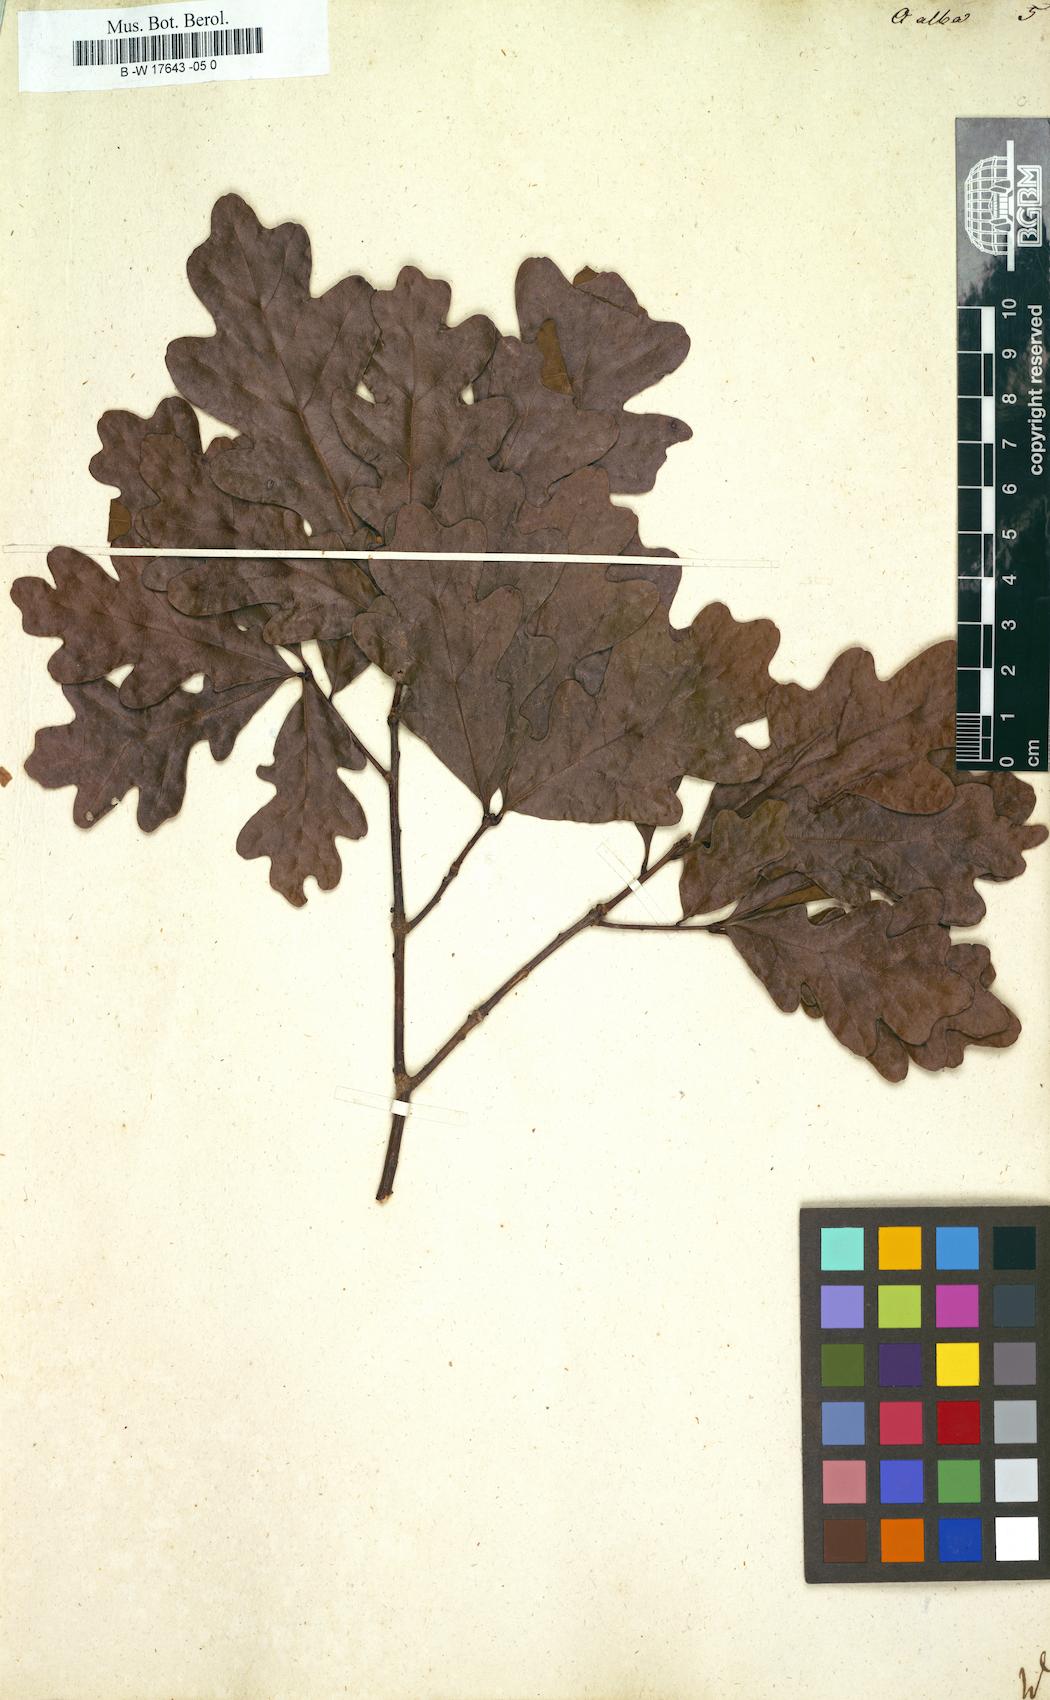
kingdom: Plantae
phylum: Tracheophyta
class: Magnoliopsida
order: Fagales
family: Fagaceae
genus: Quercus
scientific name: Quercus alba
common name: White oak
